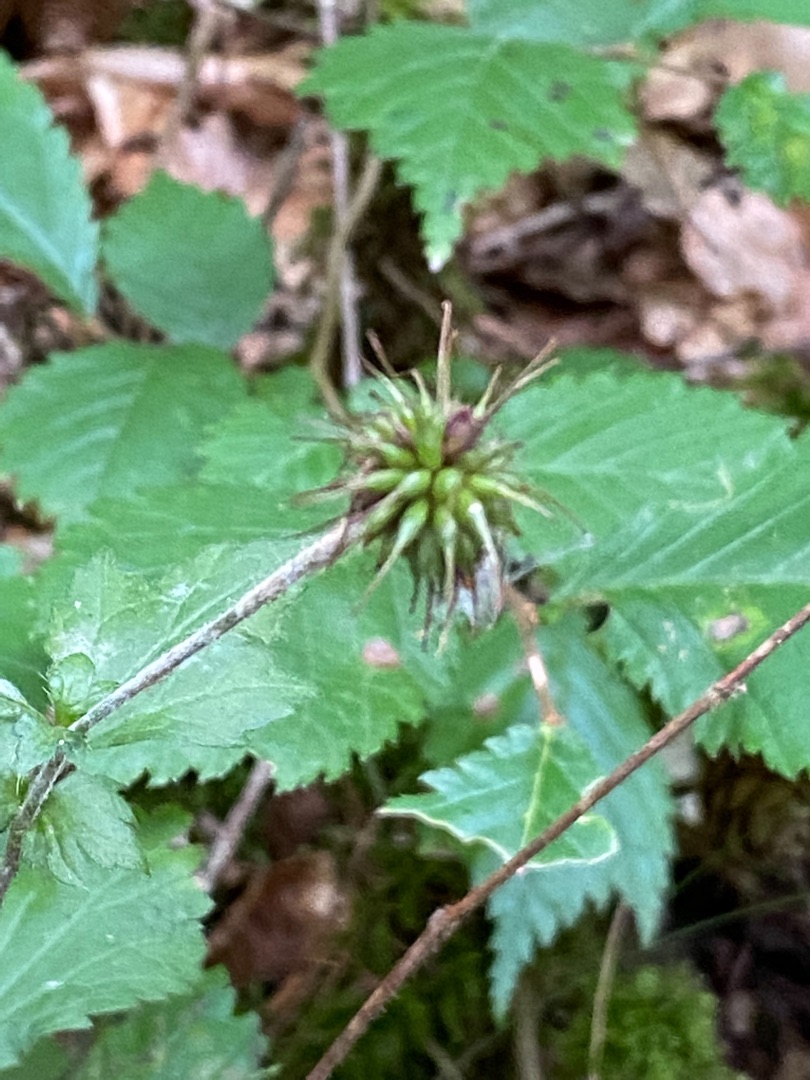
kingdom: Plantae
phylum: Tracheophyta
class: Magnoliopsida
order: Rosales
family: Rosaceae
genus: Geum
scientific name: Geum urbanum
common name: Feber-nellikerod
